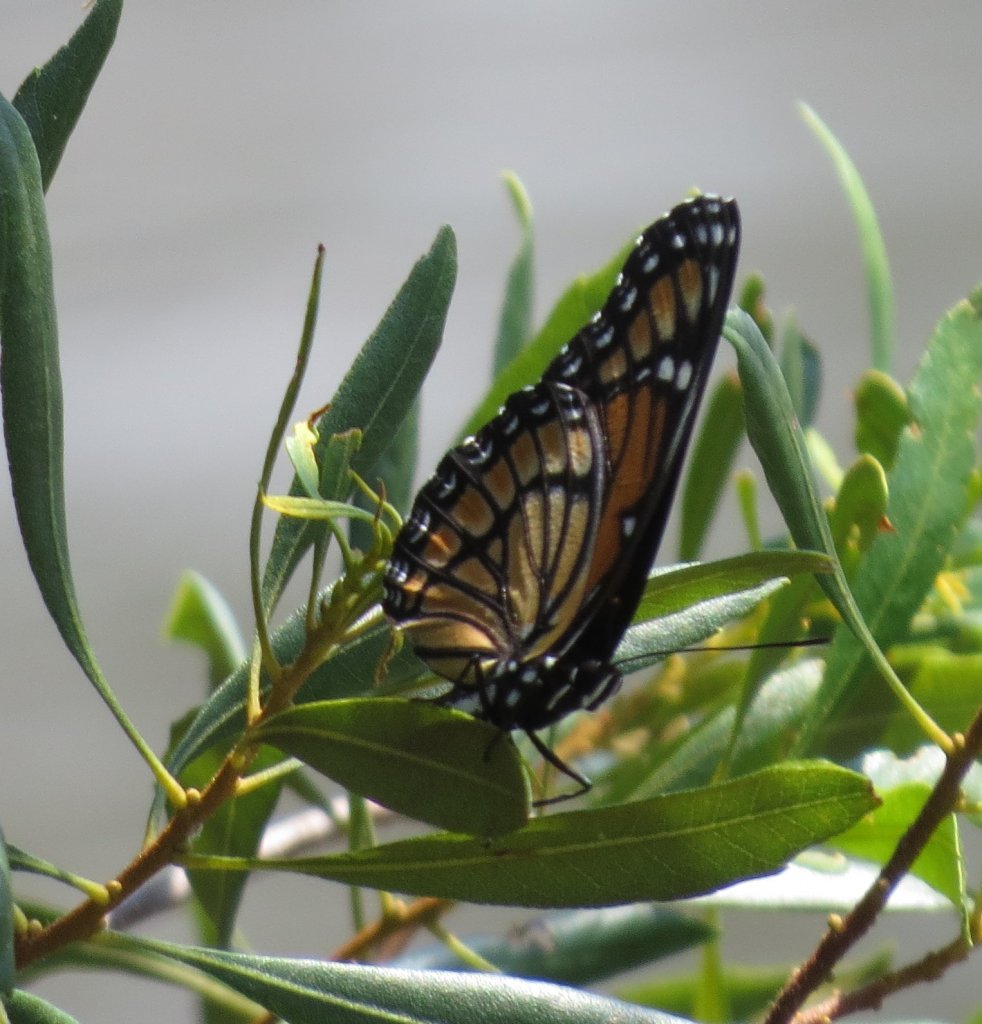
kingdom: Animalia
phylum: Arthropoda
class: Insecta
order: Lepidoptera
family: Nymphalidae
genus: Limenitis
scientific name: Limenitis archippus
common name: Viceroy
